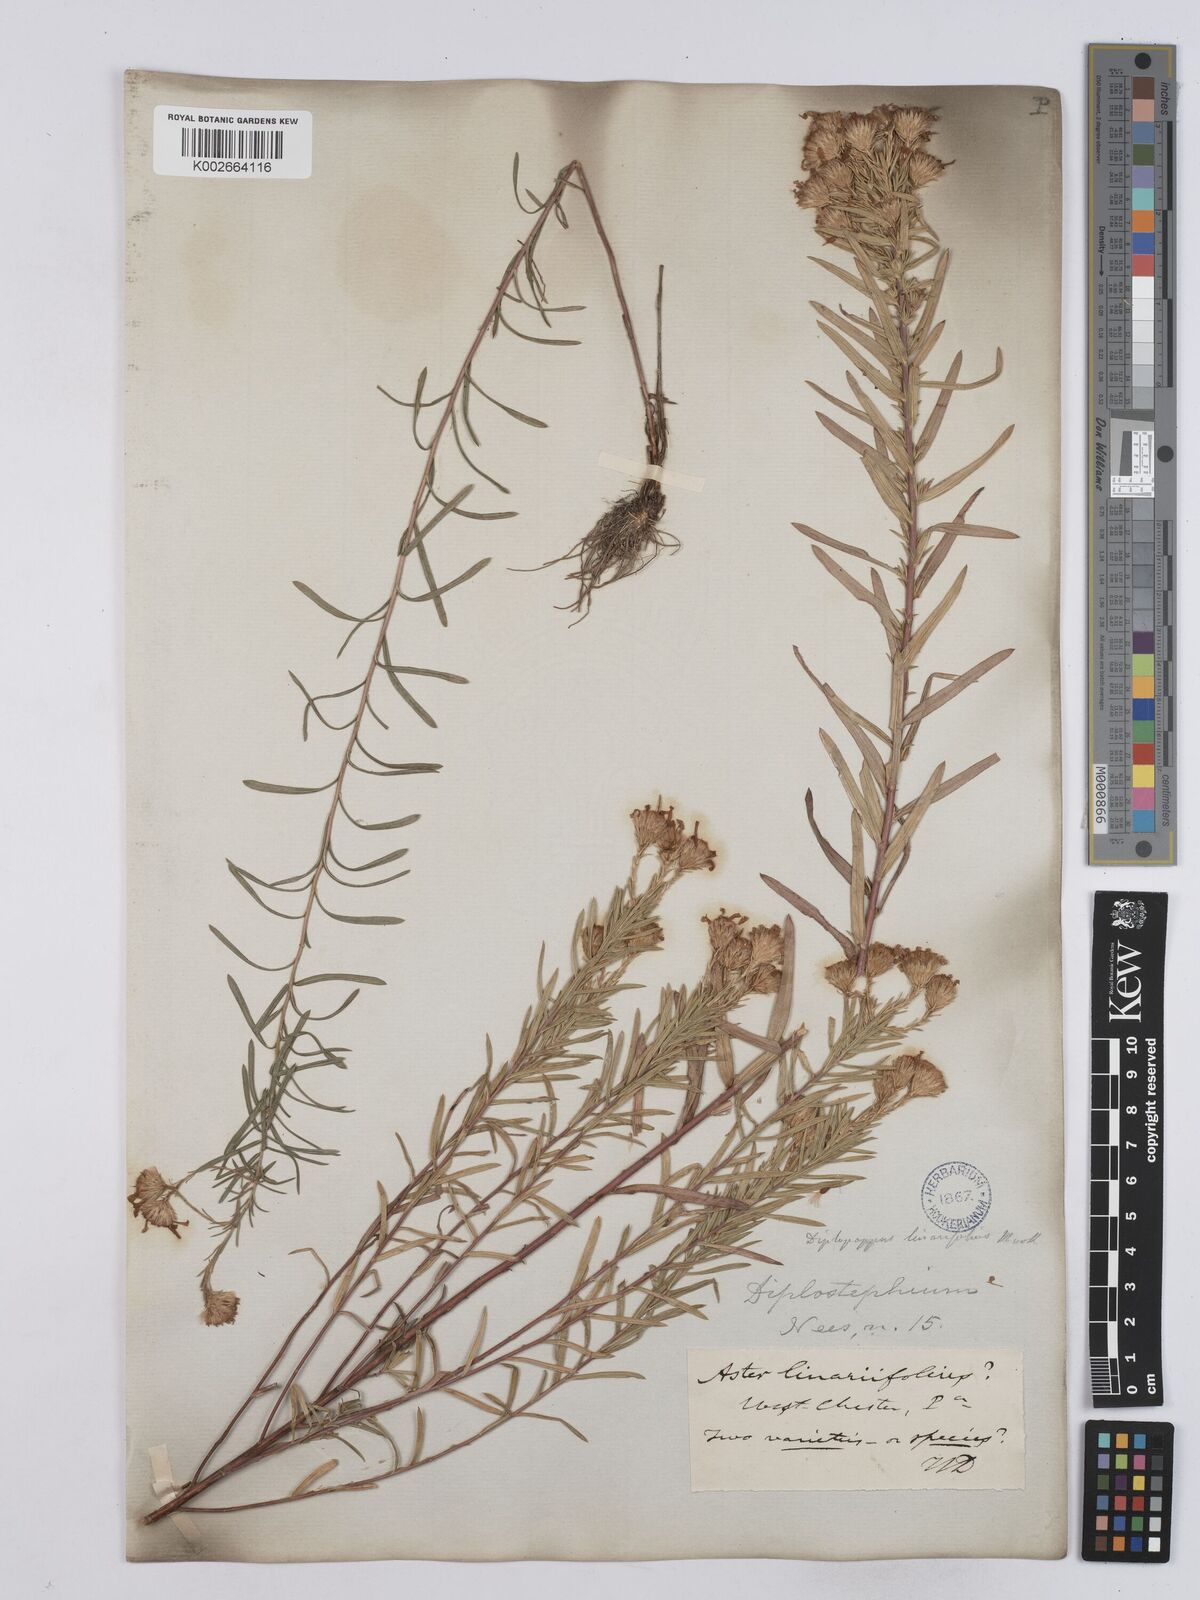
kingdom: Plantae
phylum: Tracheophyta
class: Magnoliopsida
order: Asterales
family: Asteraceae
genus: Ionactis
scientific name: Ionactis linariifolia
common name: Flax-leaf aster
